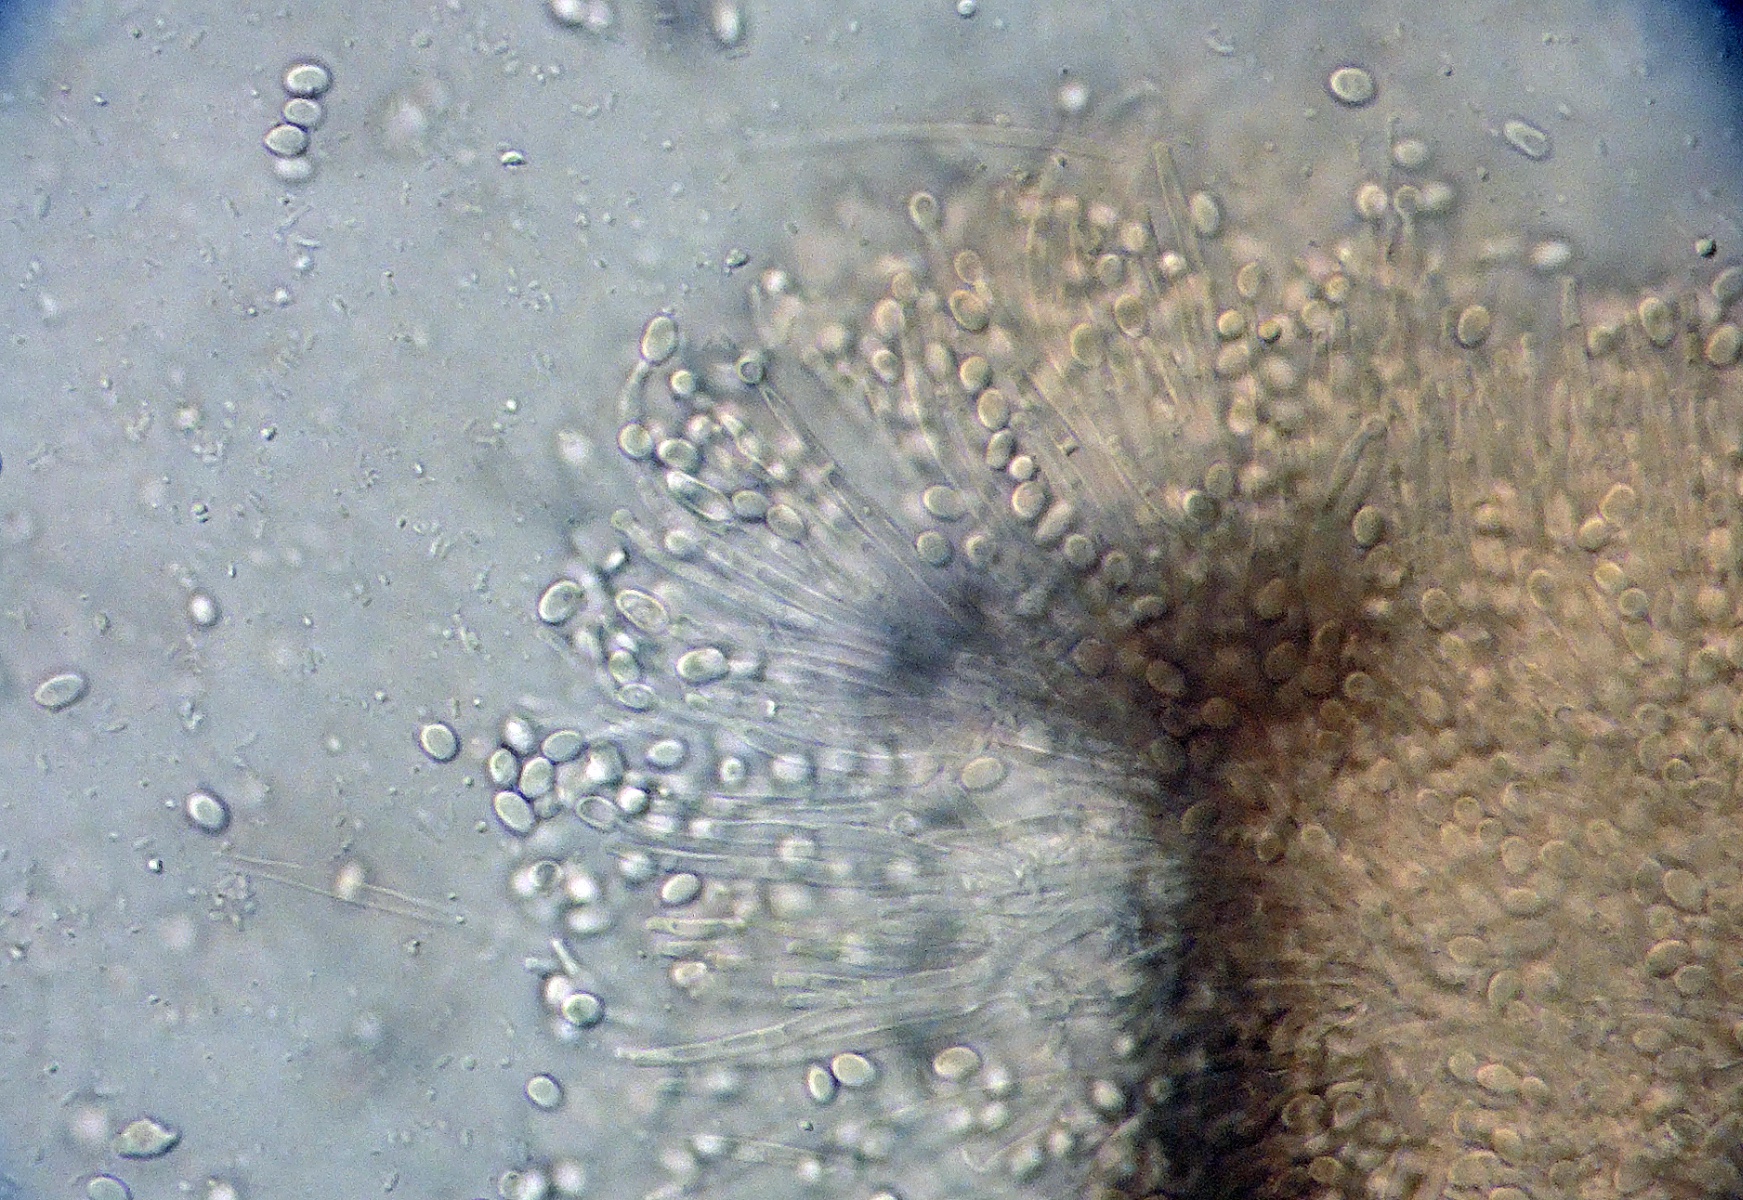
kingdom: Fungi
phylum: Ascomycota
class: Sordariomycetes
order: Hypocreales
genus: Stilbella
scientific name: Stilbella fimetaria
